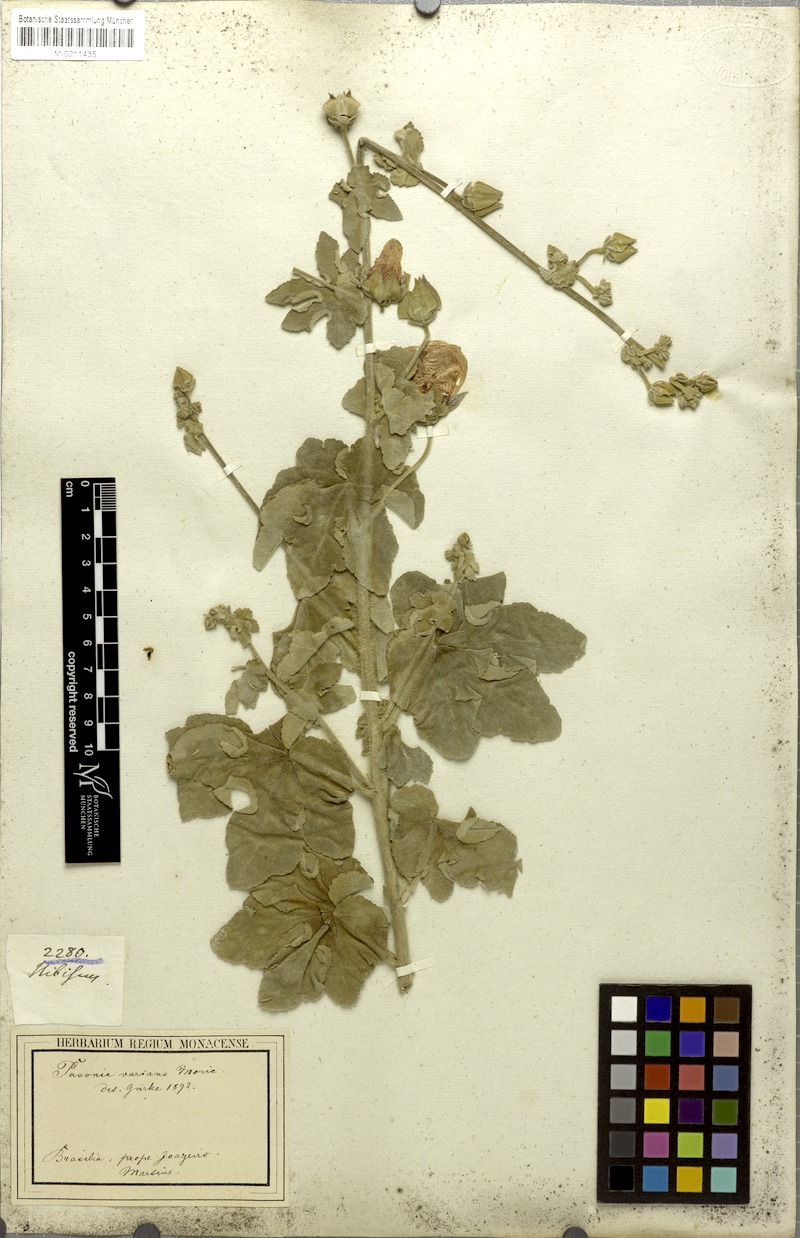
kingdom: Plantae
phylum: Tracheophyta
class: Magnoliopsida
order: Malvales
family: Malvaceae
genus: Pavonia
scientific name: Pavonia varians
